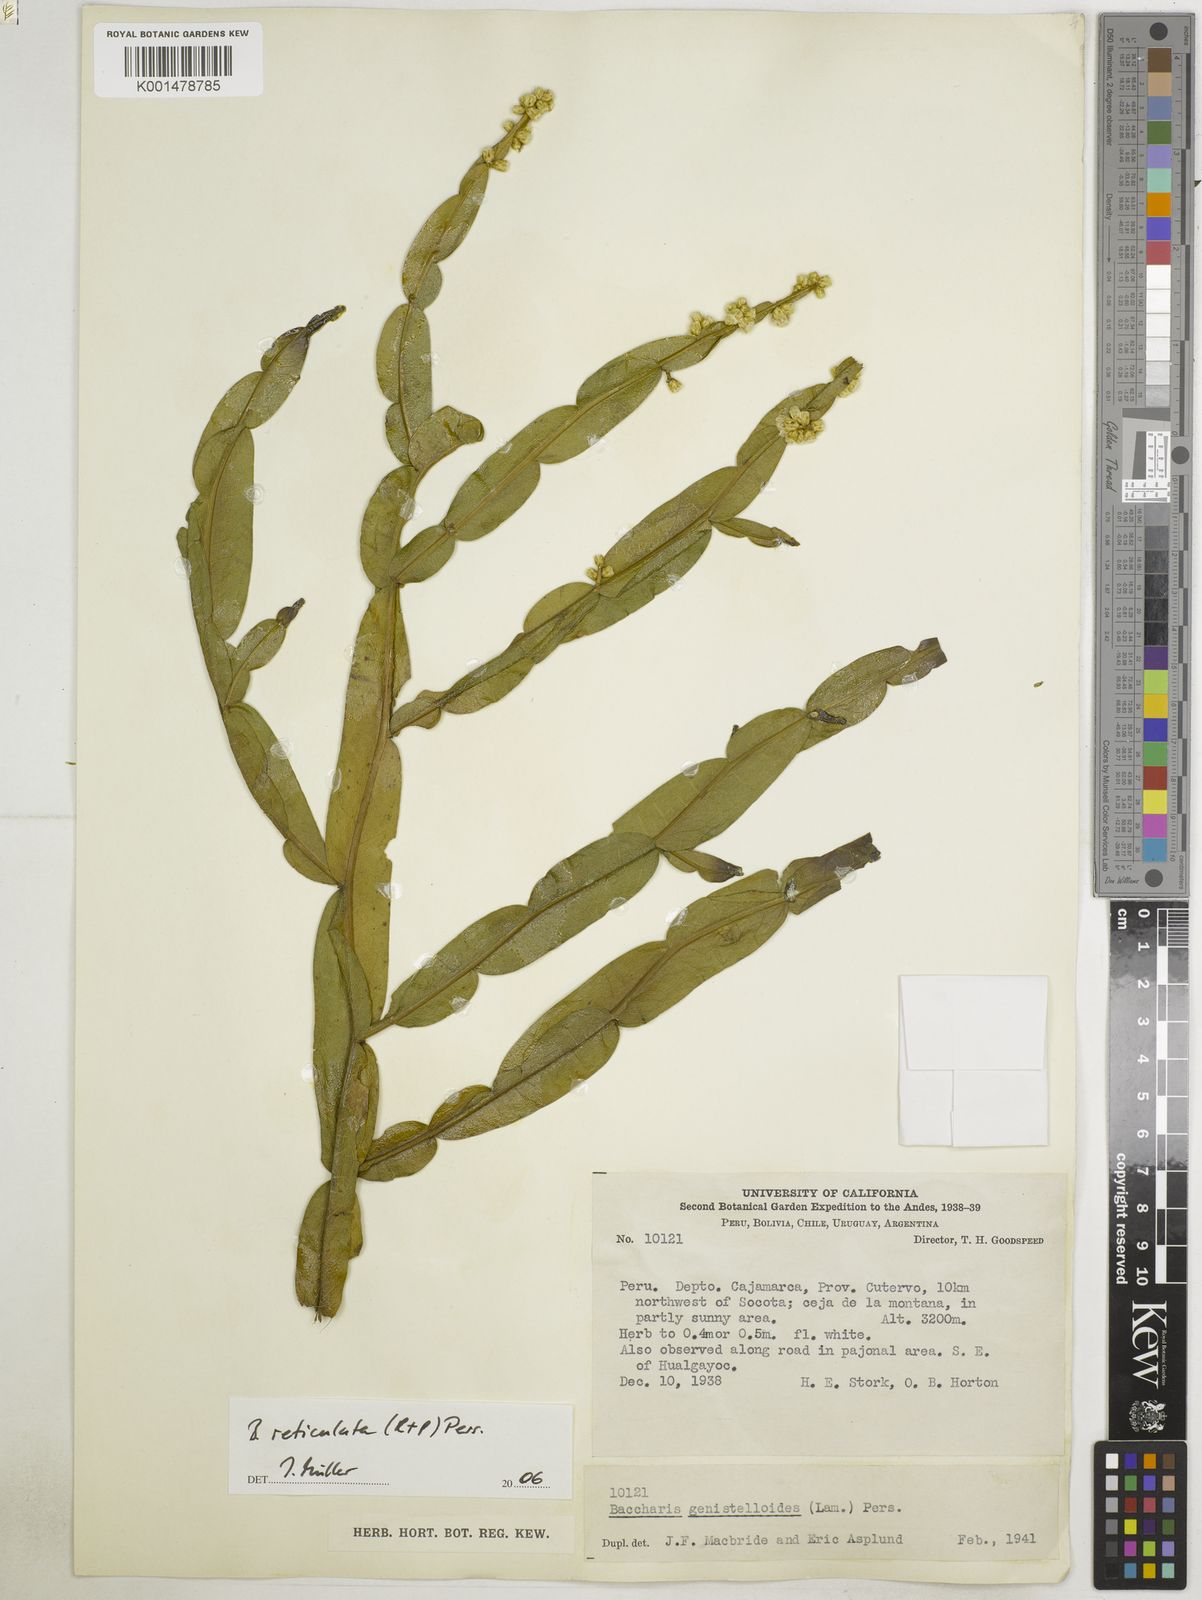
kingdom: Plantae
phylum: Tracheophyta
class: Magnoliopsida
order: Asterales
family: Asteraceae
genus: Baccharis
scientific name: Baccharis genistelloides
